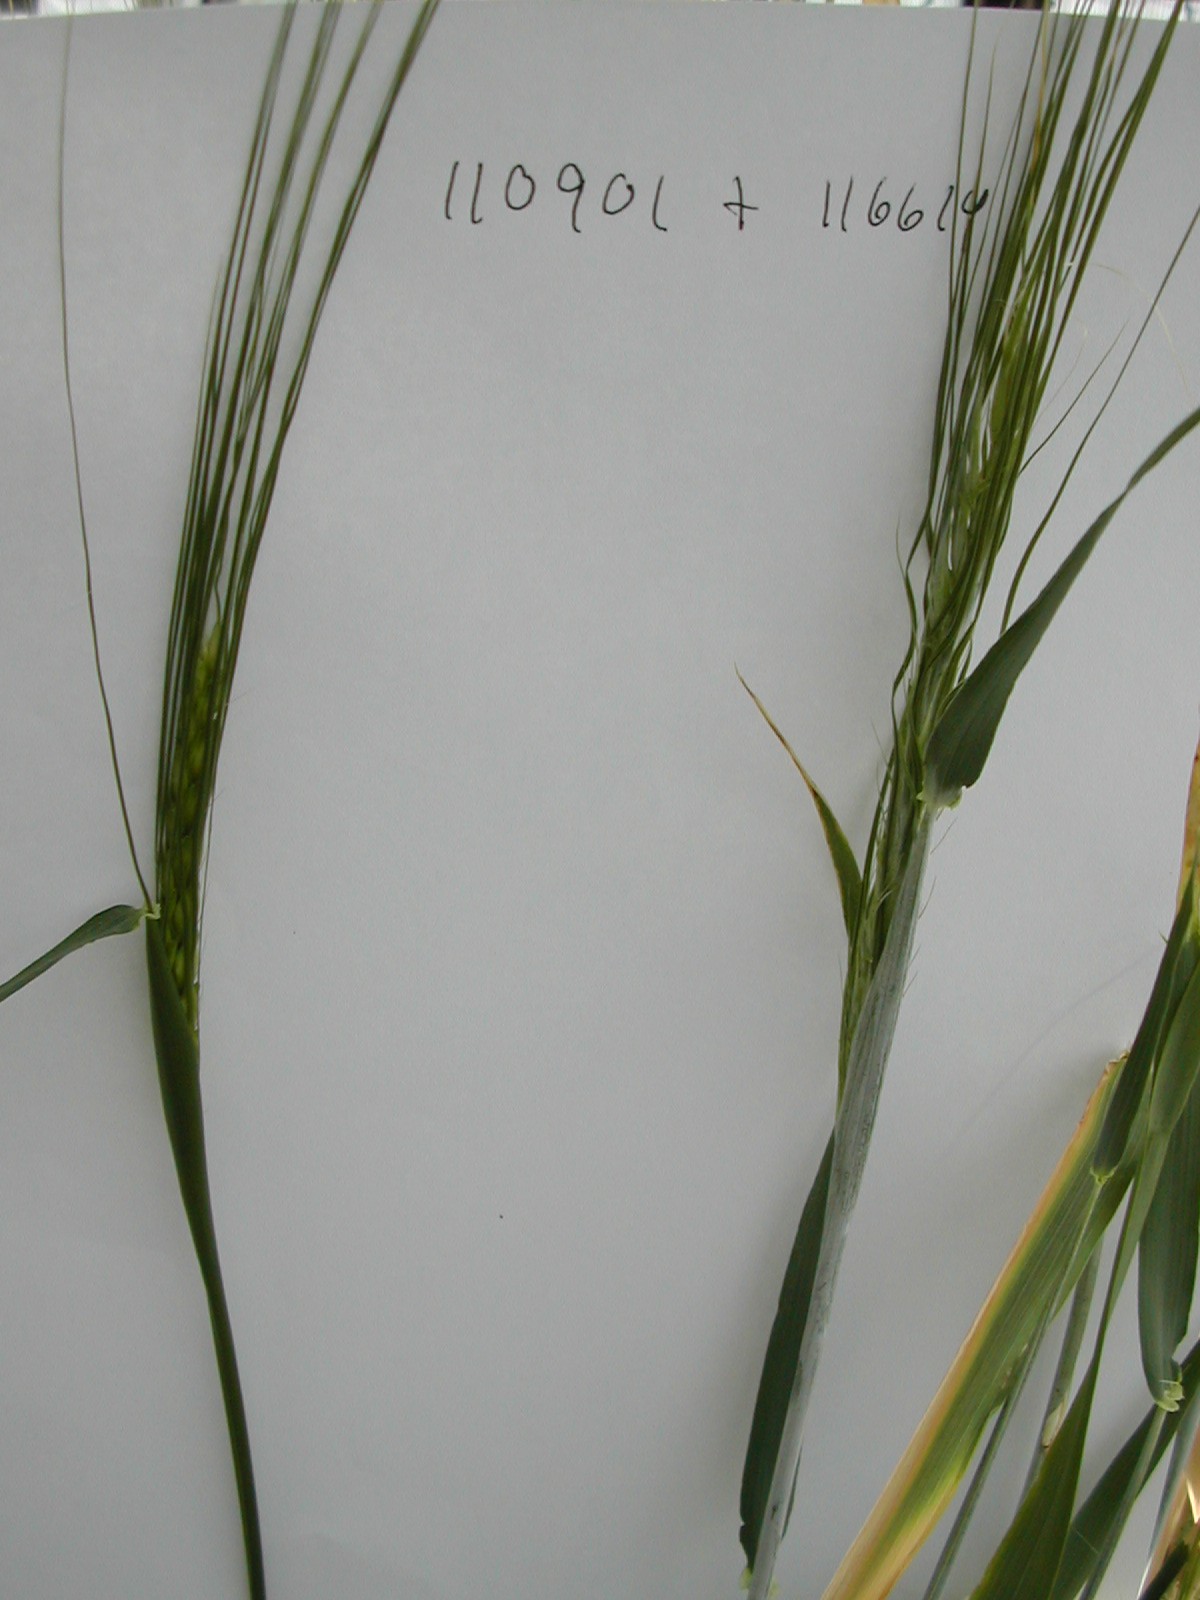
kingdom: Plantae
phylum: Tracheophyta
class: Liliopsida
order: Poales
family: Poaceae
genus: Hordeum
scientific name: Hordeum vulgare
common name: Common barley
